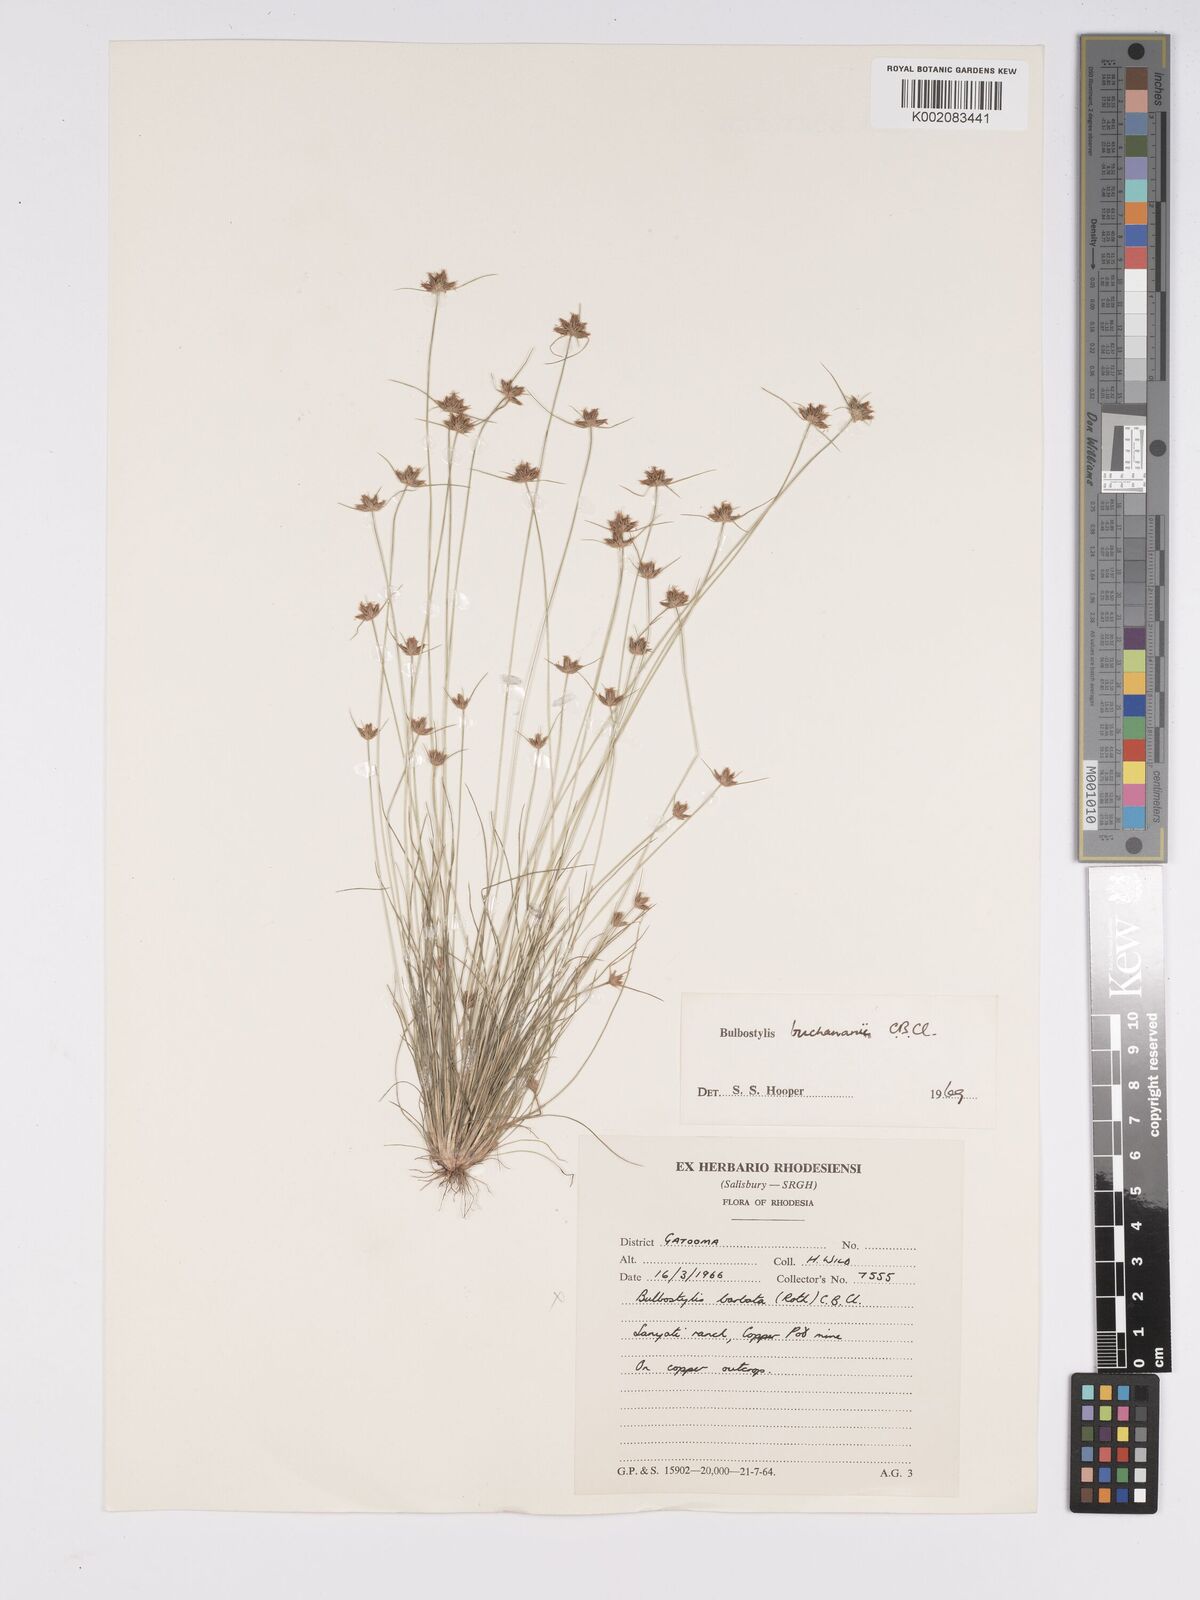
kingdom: Plantae
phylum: Tracheophyta
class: Liliopsida
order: Poales
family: Cyperaceae
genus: Bulbostylis
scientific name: Bulbostylis buchananii
